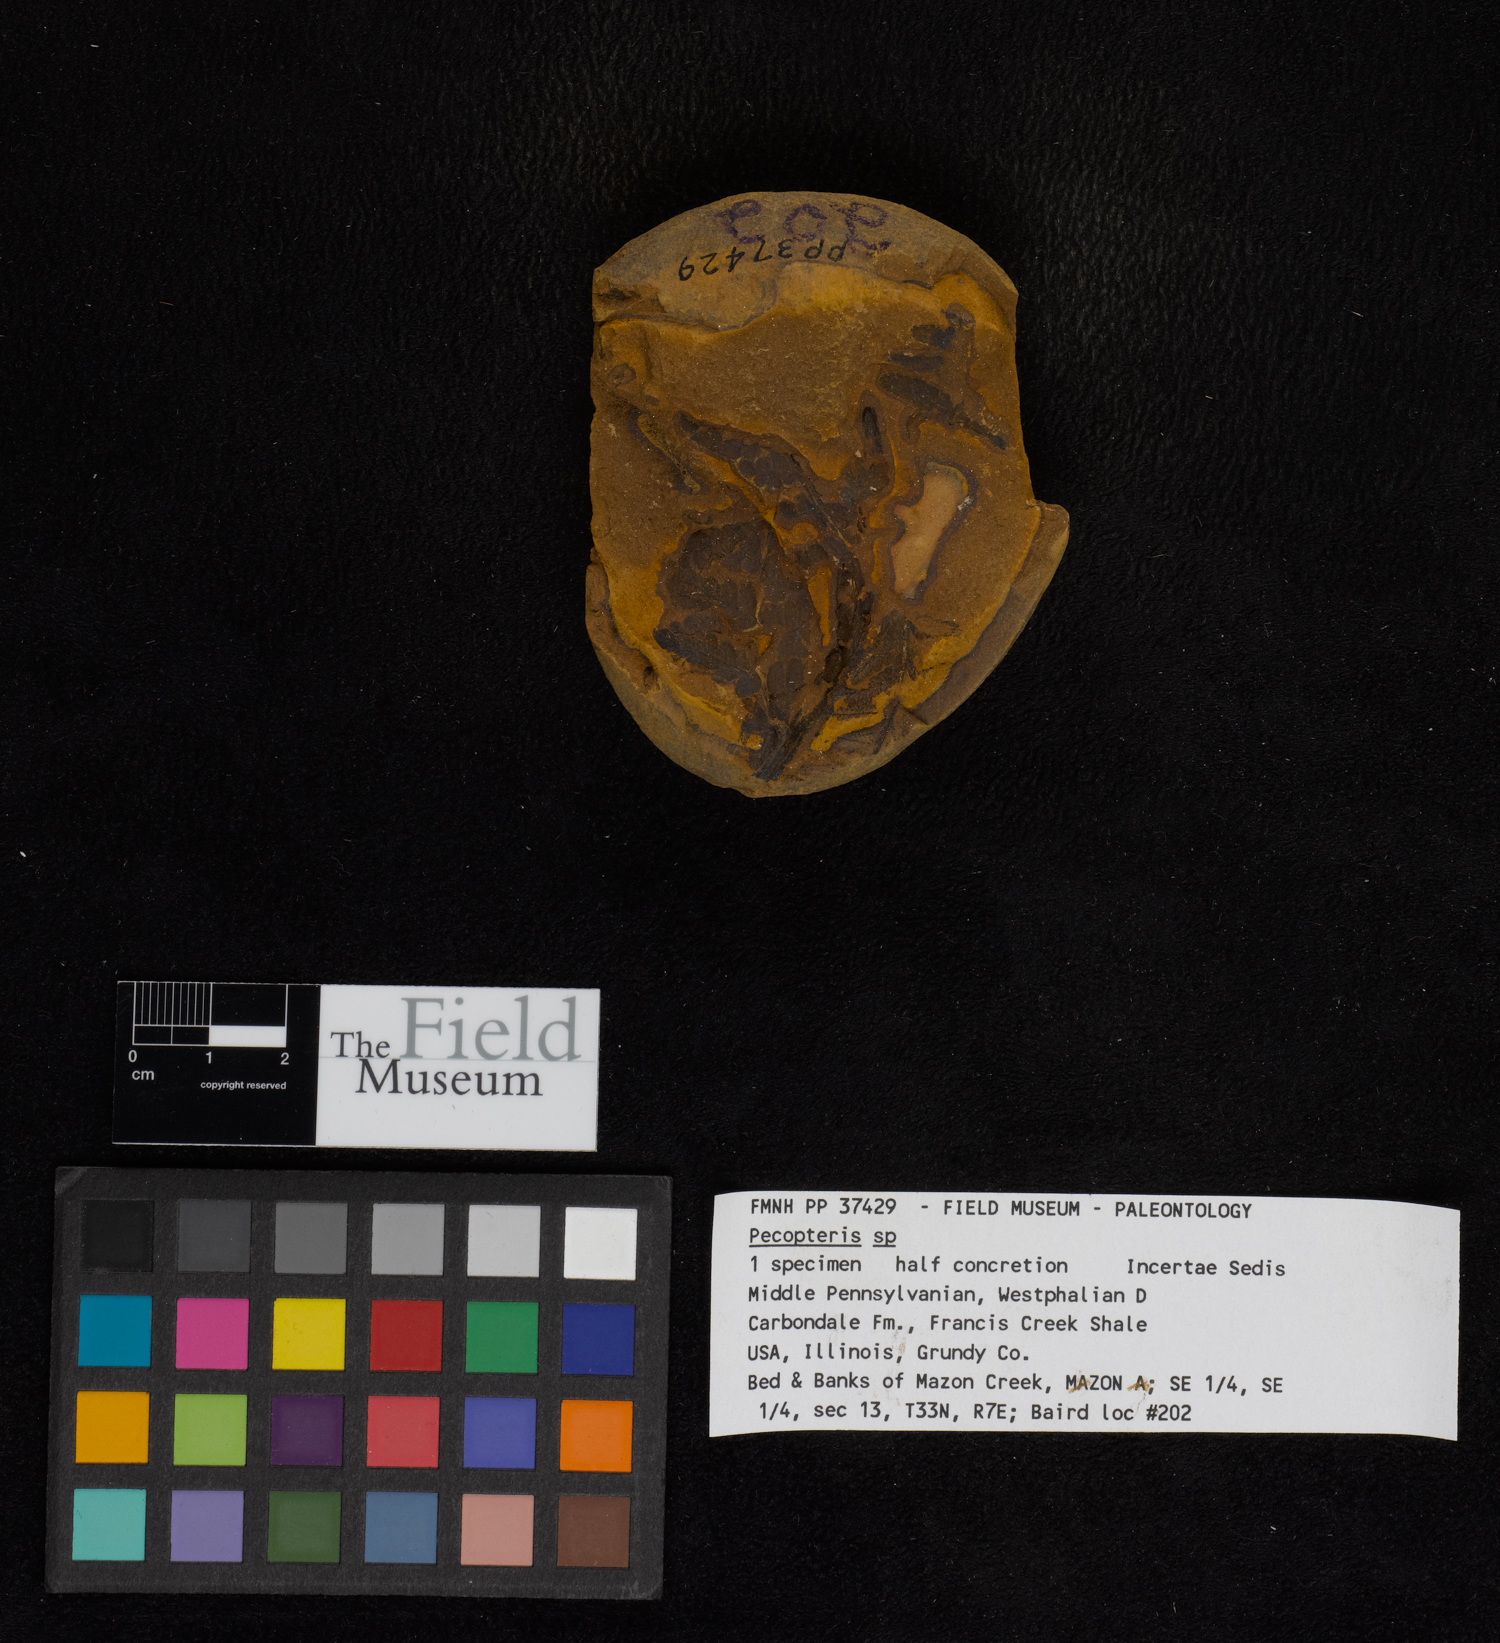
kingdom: Plantae
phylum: Tracheophyta
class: Polypodiopsida
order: Marattiales
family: Asterothecaceae
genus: Pecopteris
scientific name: Pecopteris
